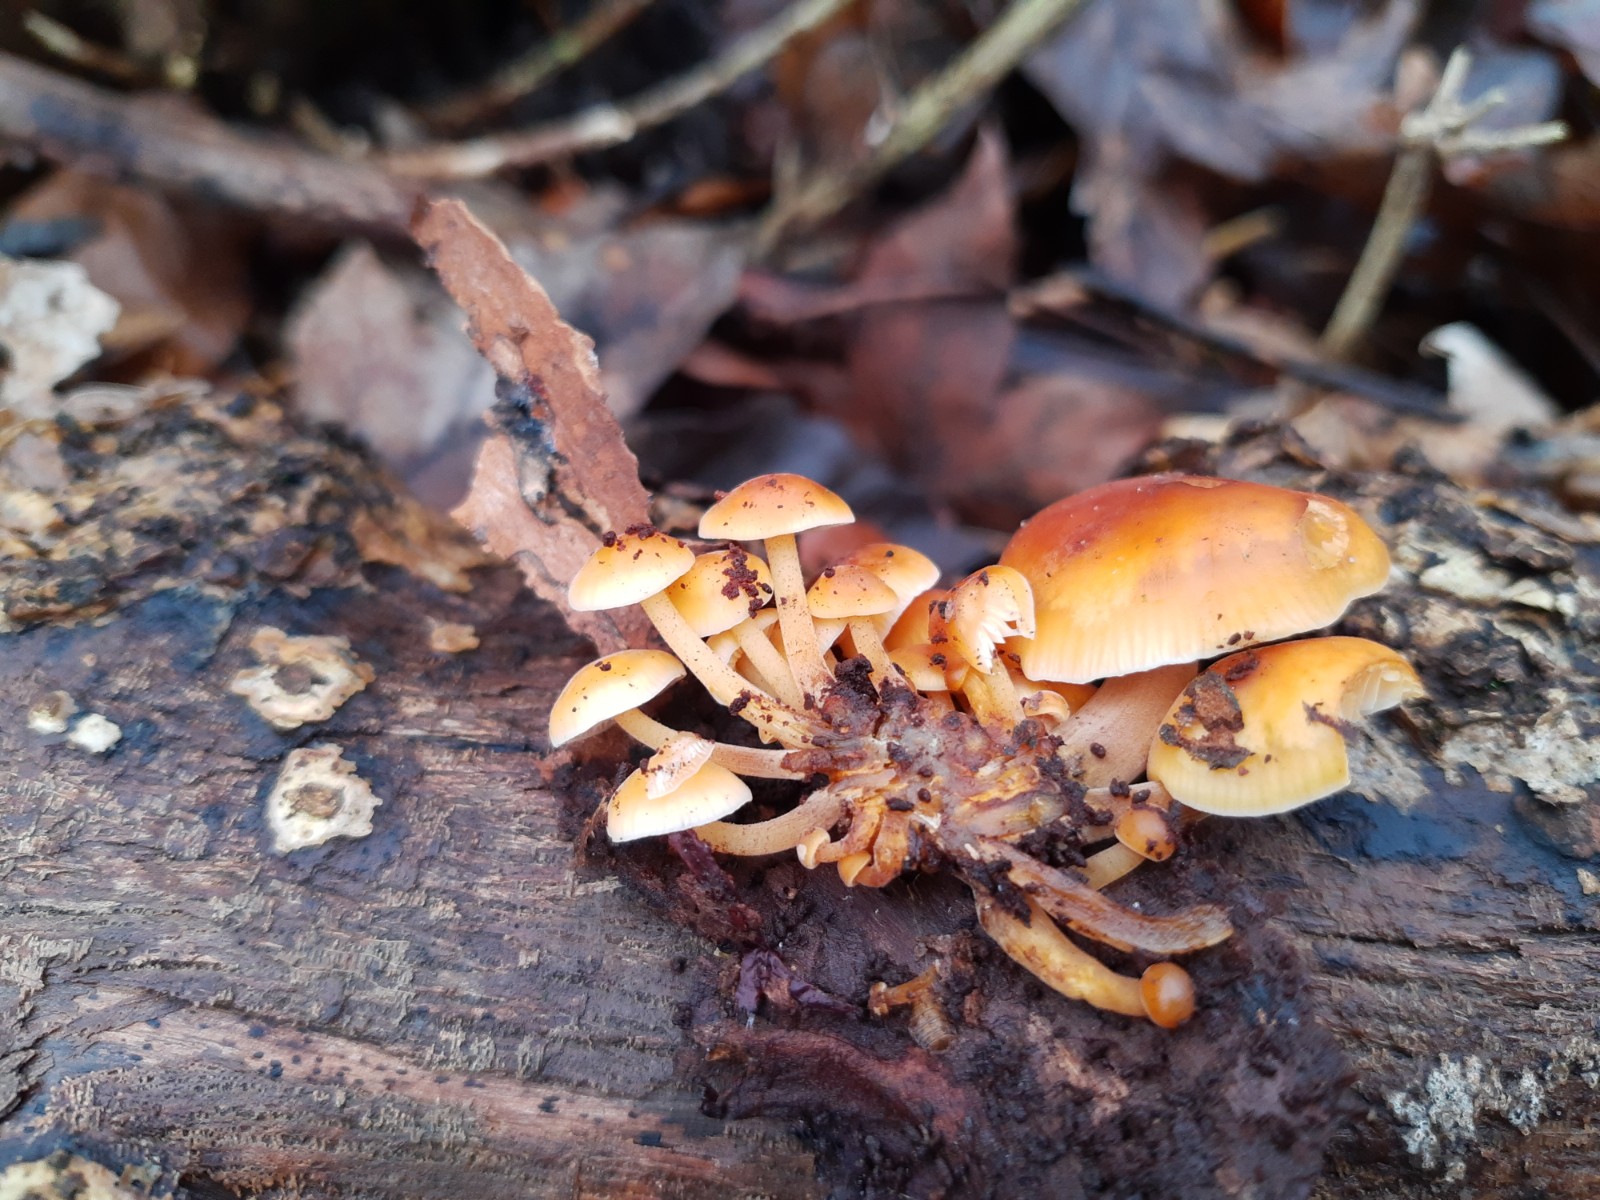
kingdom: Fungi
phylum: Basidiomycota
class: Agaricomycetes
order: Agaricales
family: Physalacriaceae
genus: Flammulina
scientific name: Flammulina
